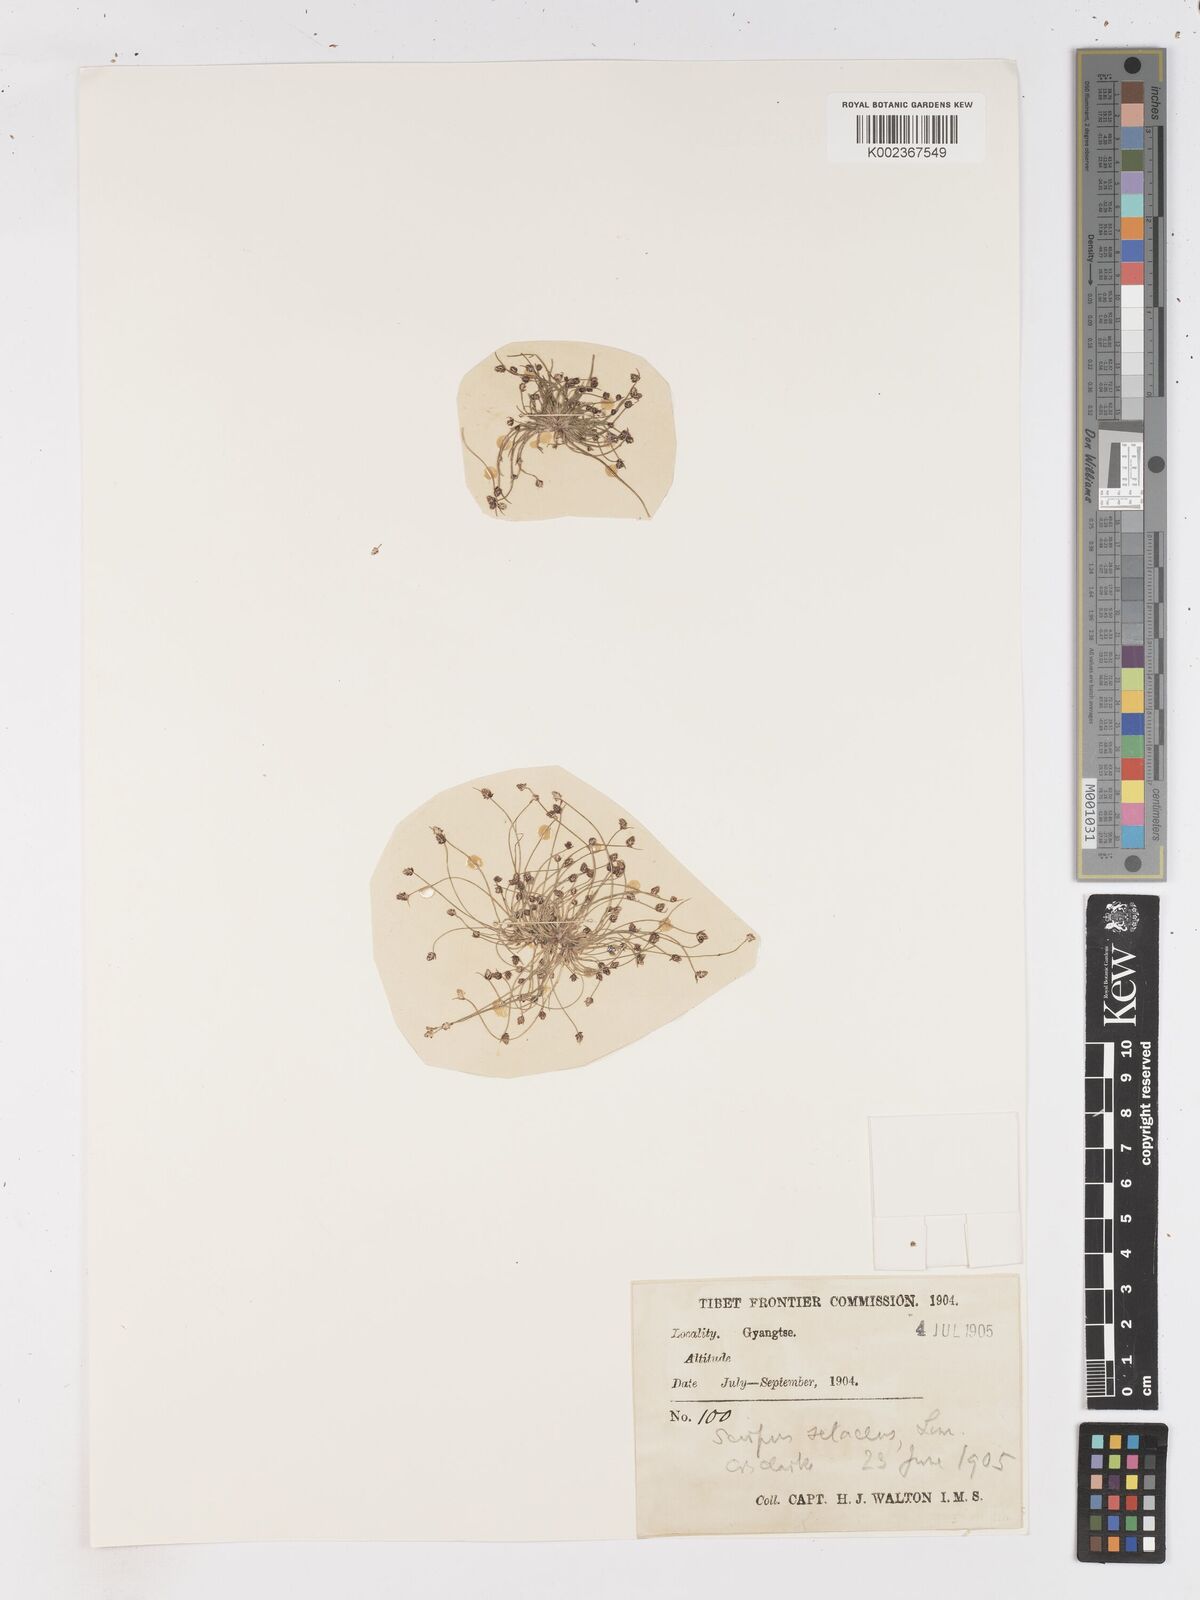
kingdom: Plantae
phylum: Tracheophyta
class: Liliopsida
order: Poales
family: Cyperaceae
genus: Isolepis
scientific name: Isolepis setacea
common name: Bristle club-rush
